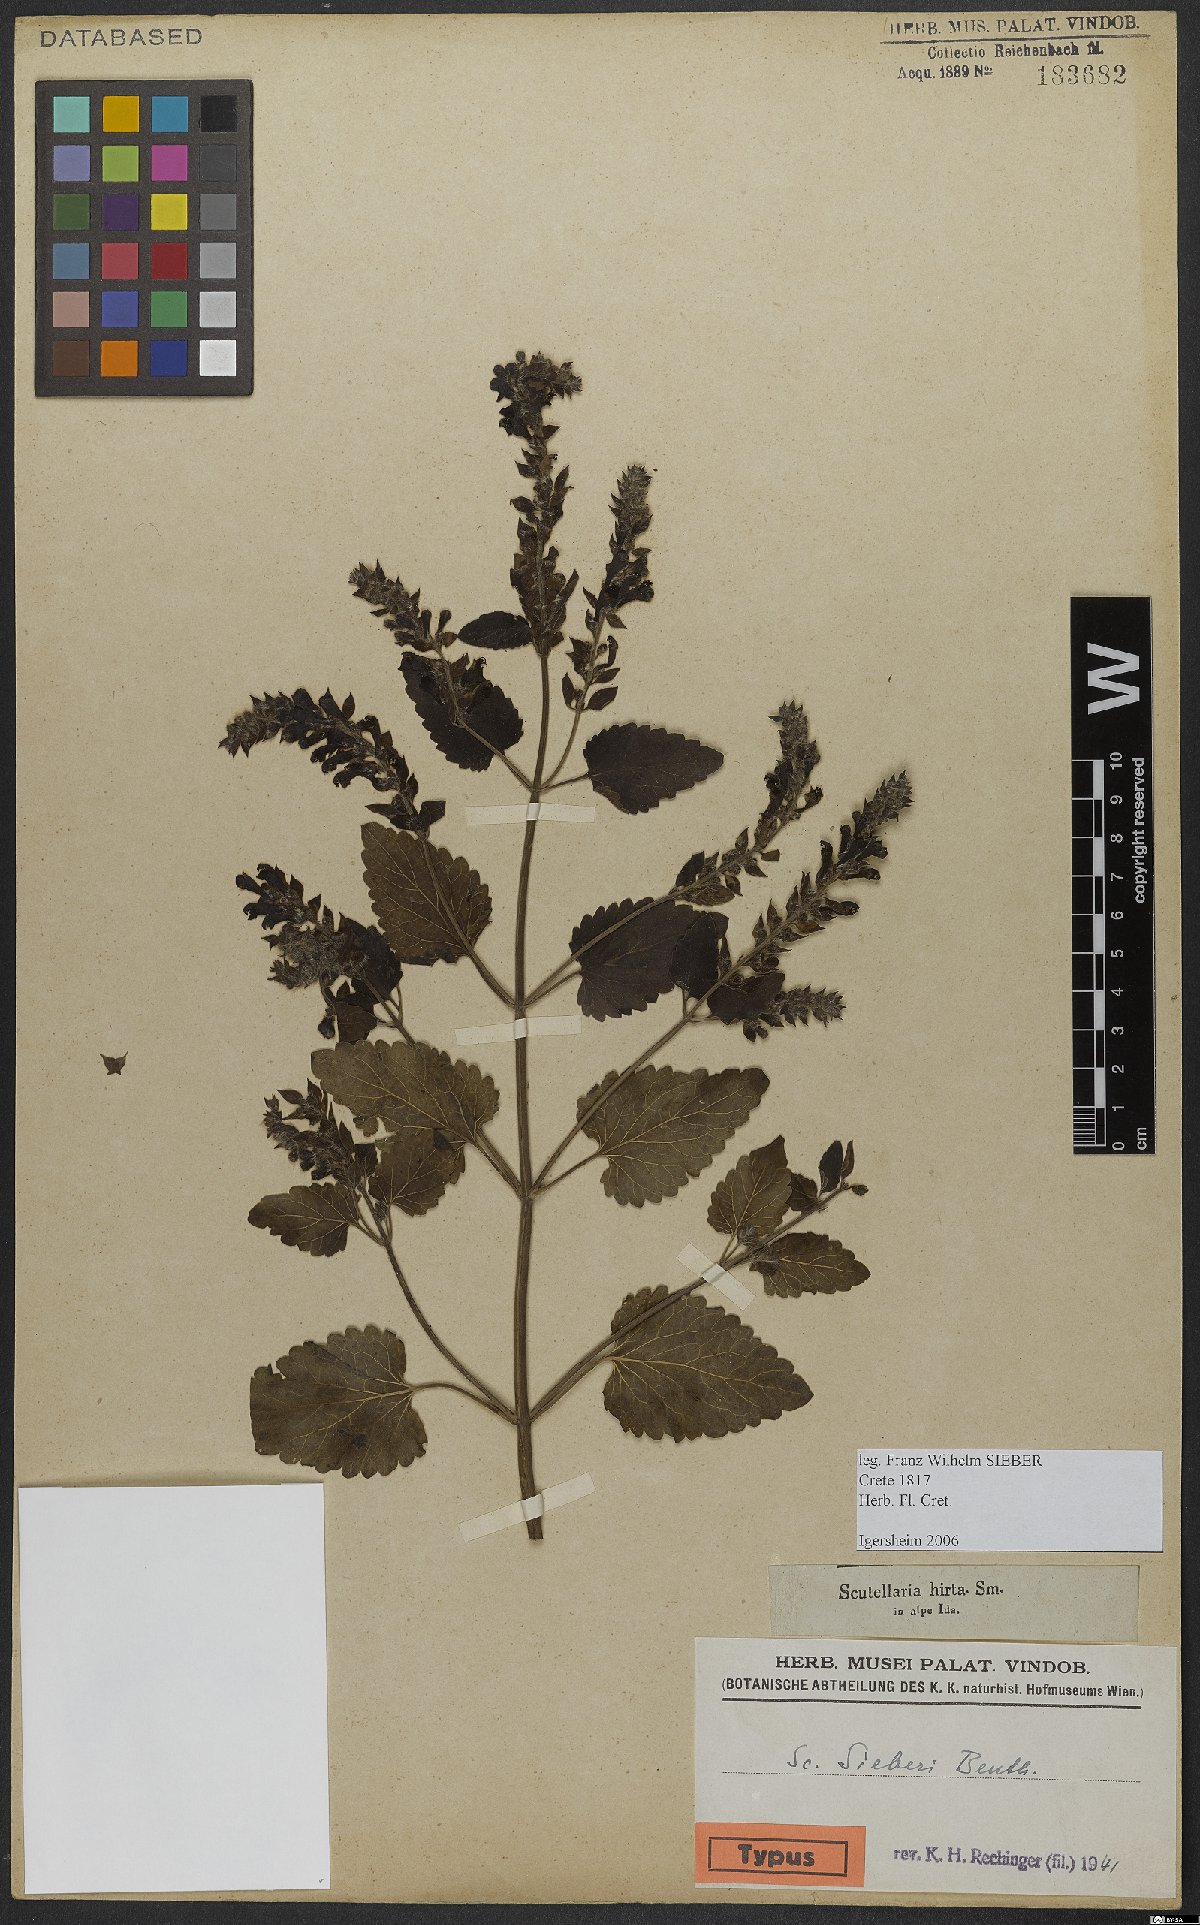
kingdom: Plantae
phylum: Tracheophyta
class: Magnoliopsida
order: Lamiales
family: Lamiaceae
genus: Scutellaria
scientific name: Scutellaria sieberi
